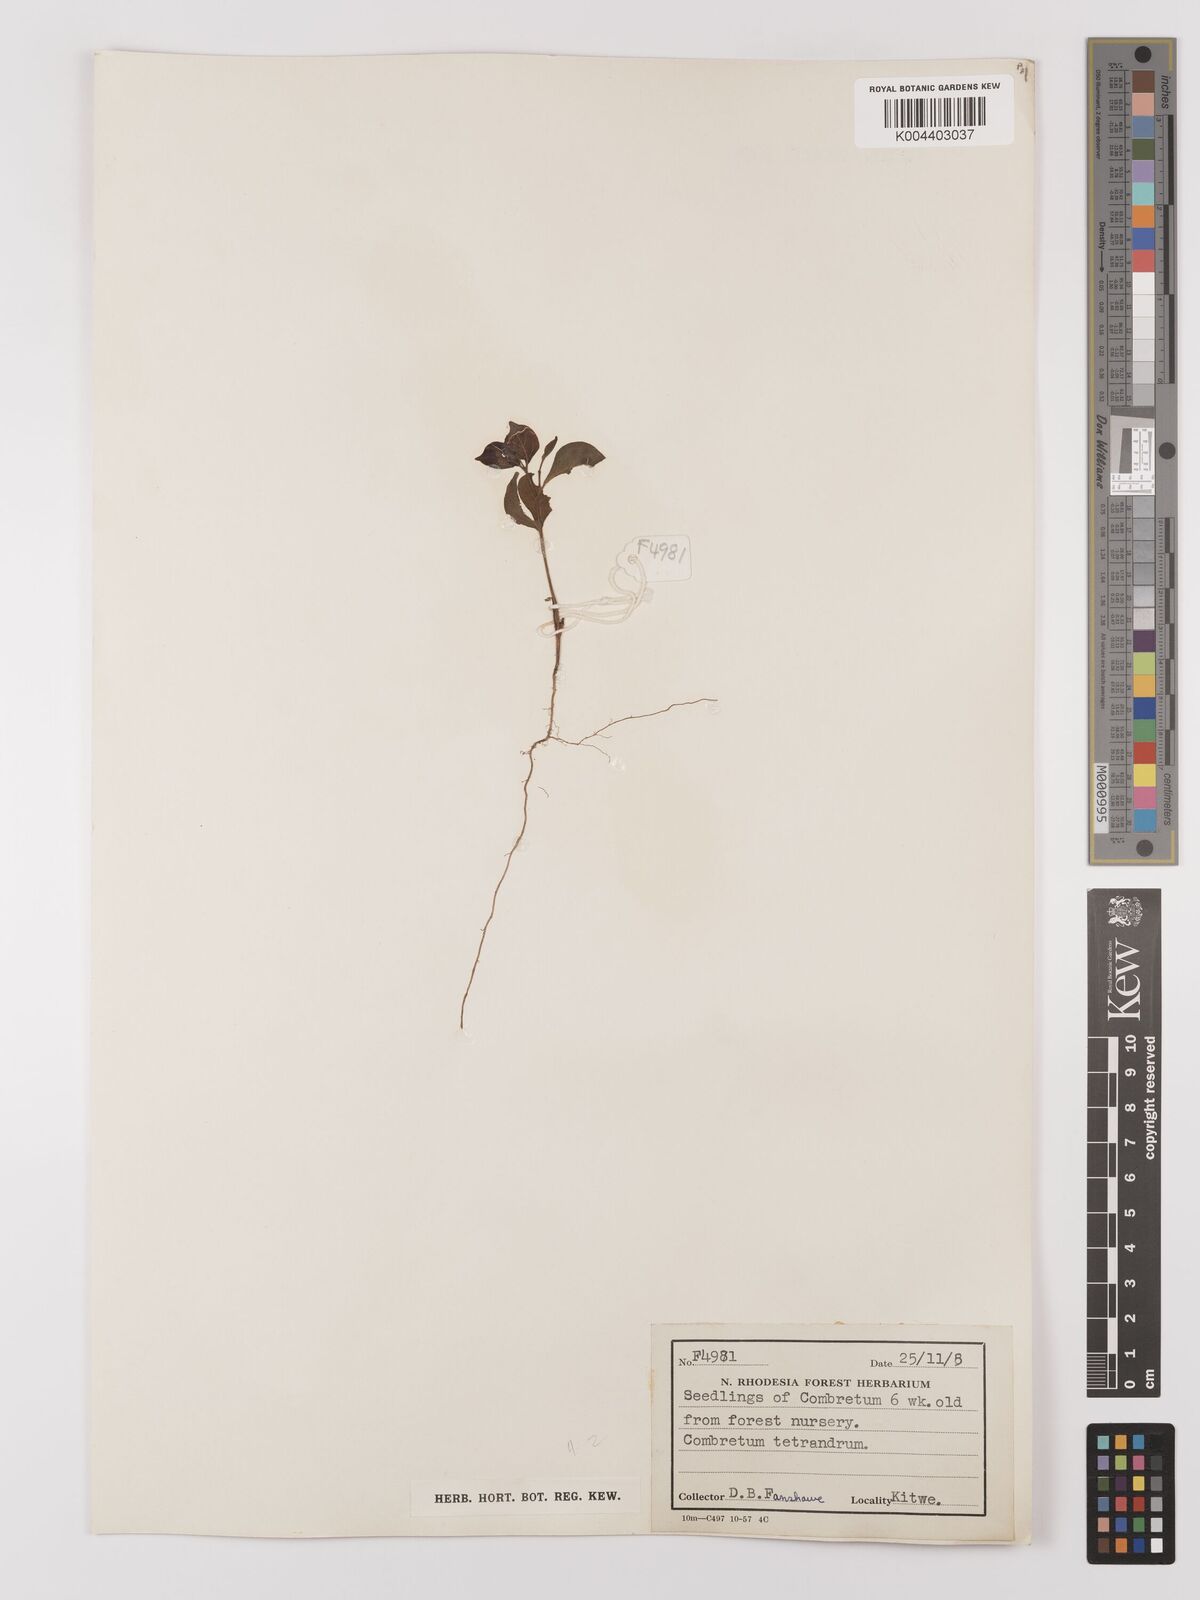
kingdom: Plantae
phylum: Tracheophyta
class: Magnoliopsida
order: Myrtales
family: Combretaceae
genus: Combretum
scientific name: Combretum tetrandrum
